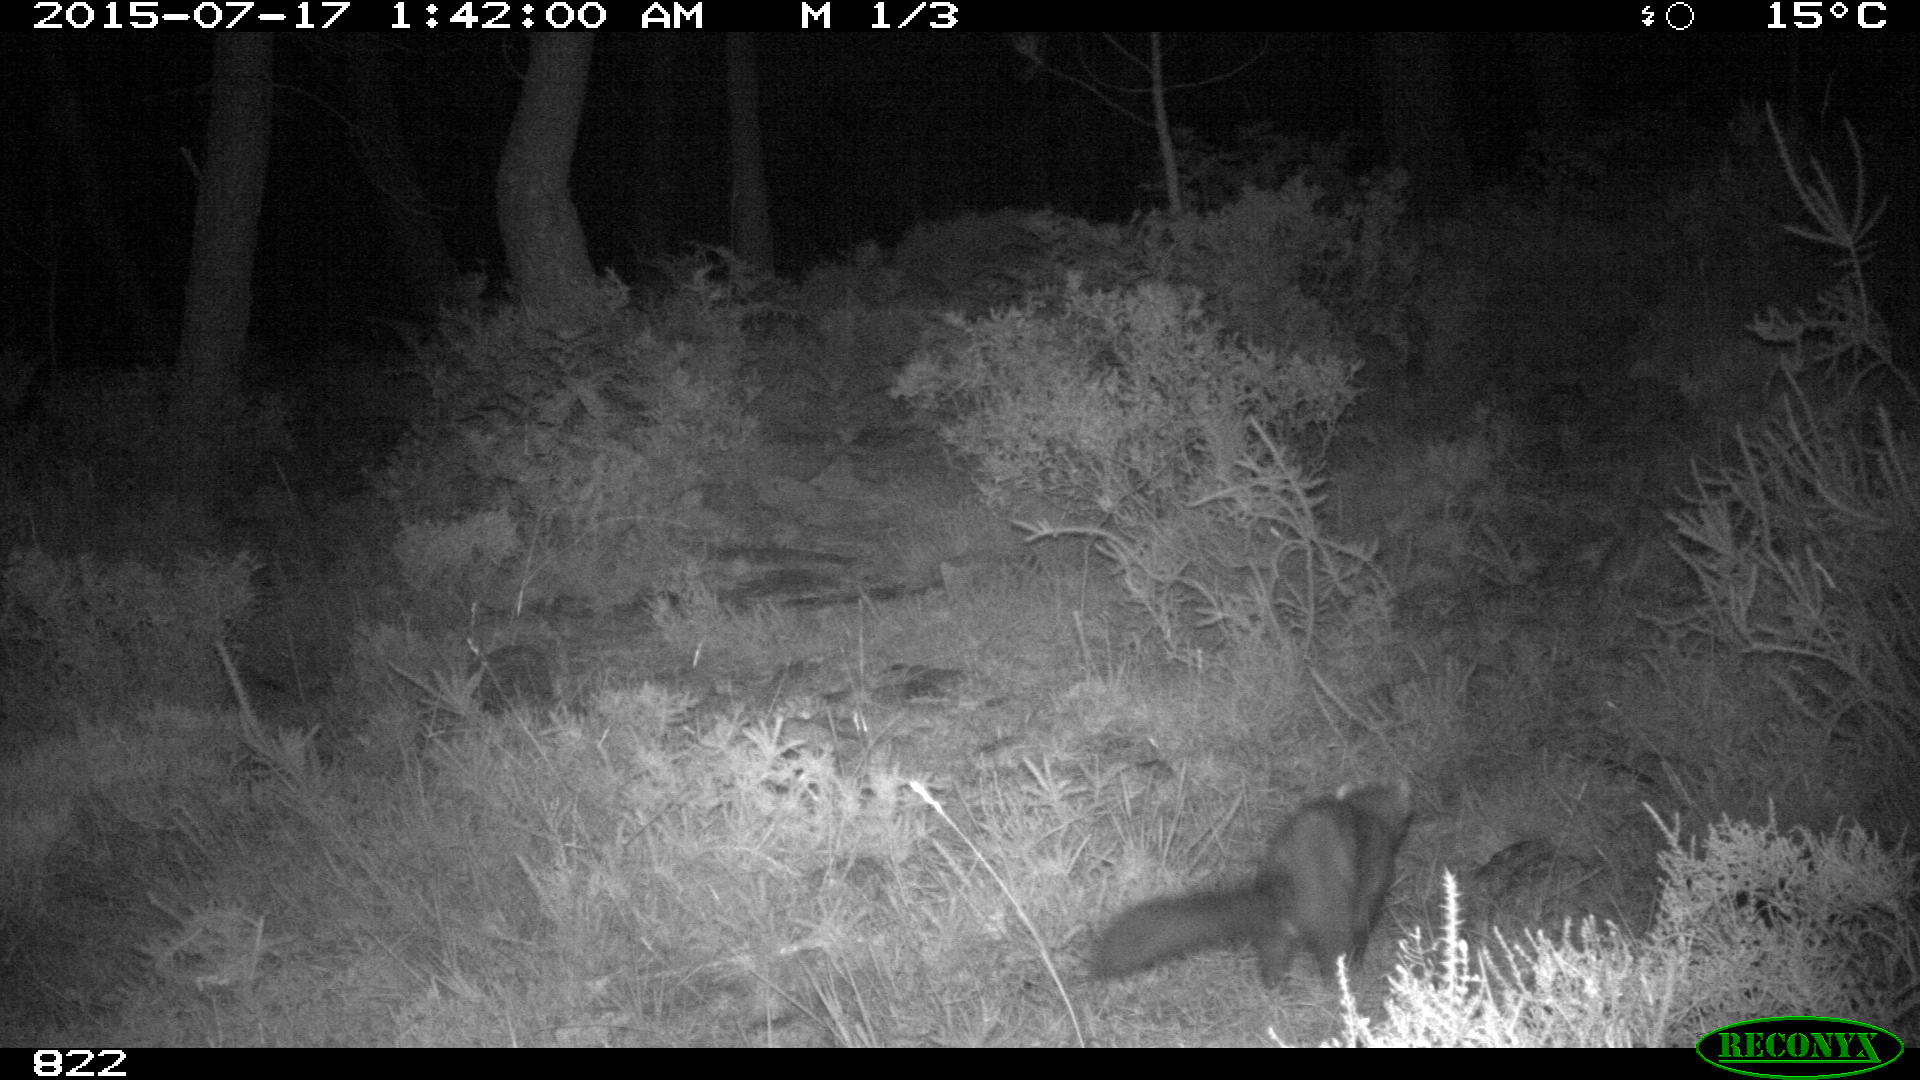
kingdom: Animalia
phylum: Chordata
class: Mammalia
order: Carnivora
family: Mustelidae
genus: Martes
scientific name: Martes foina
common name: Beech marten
